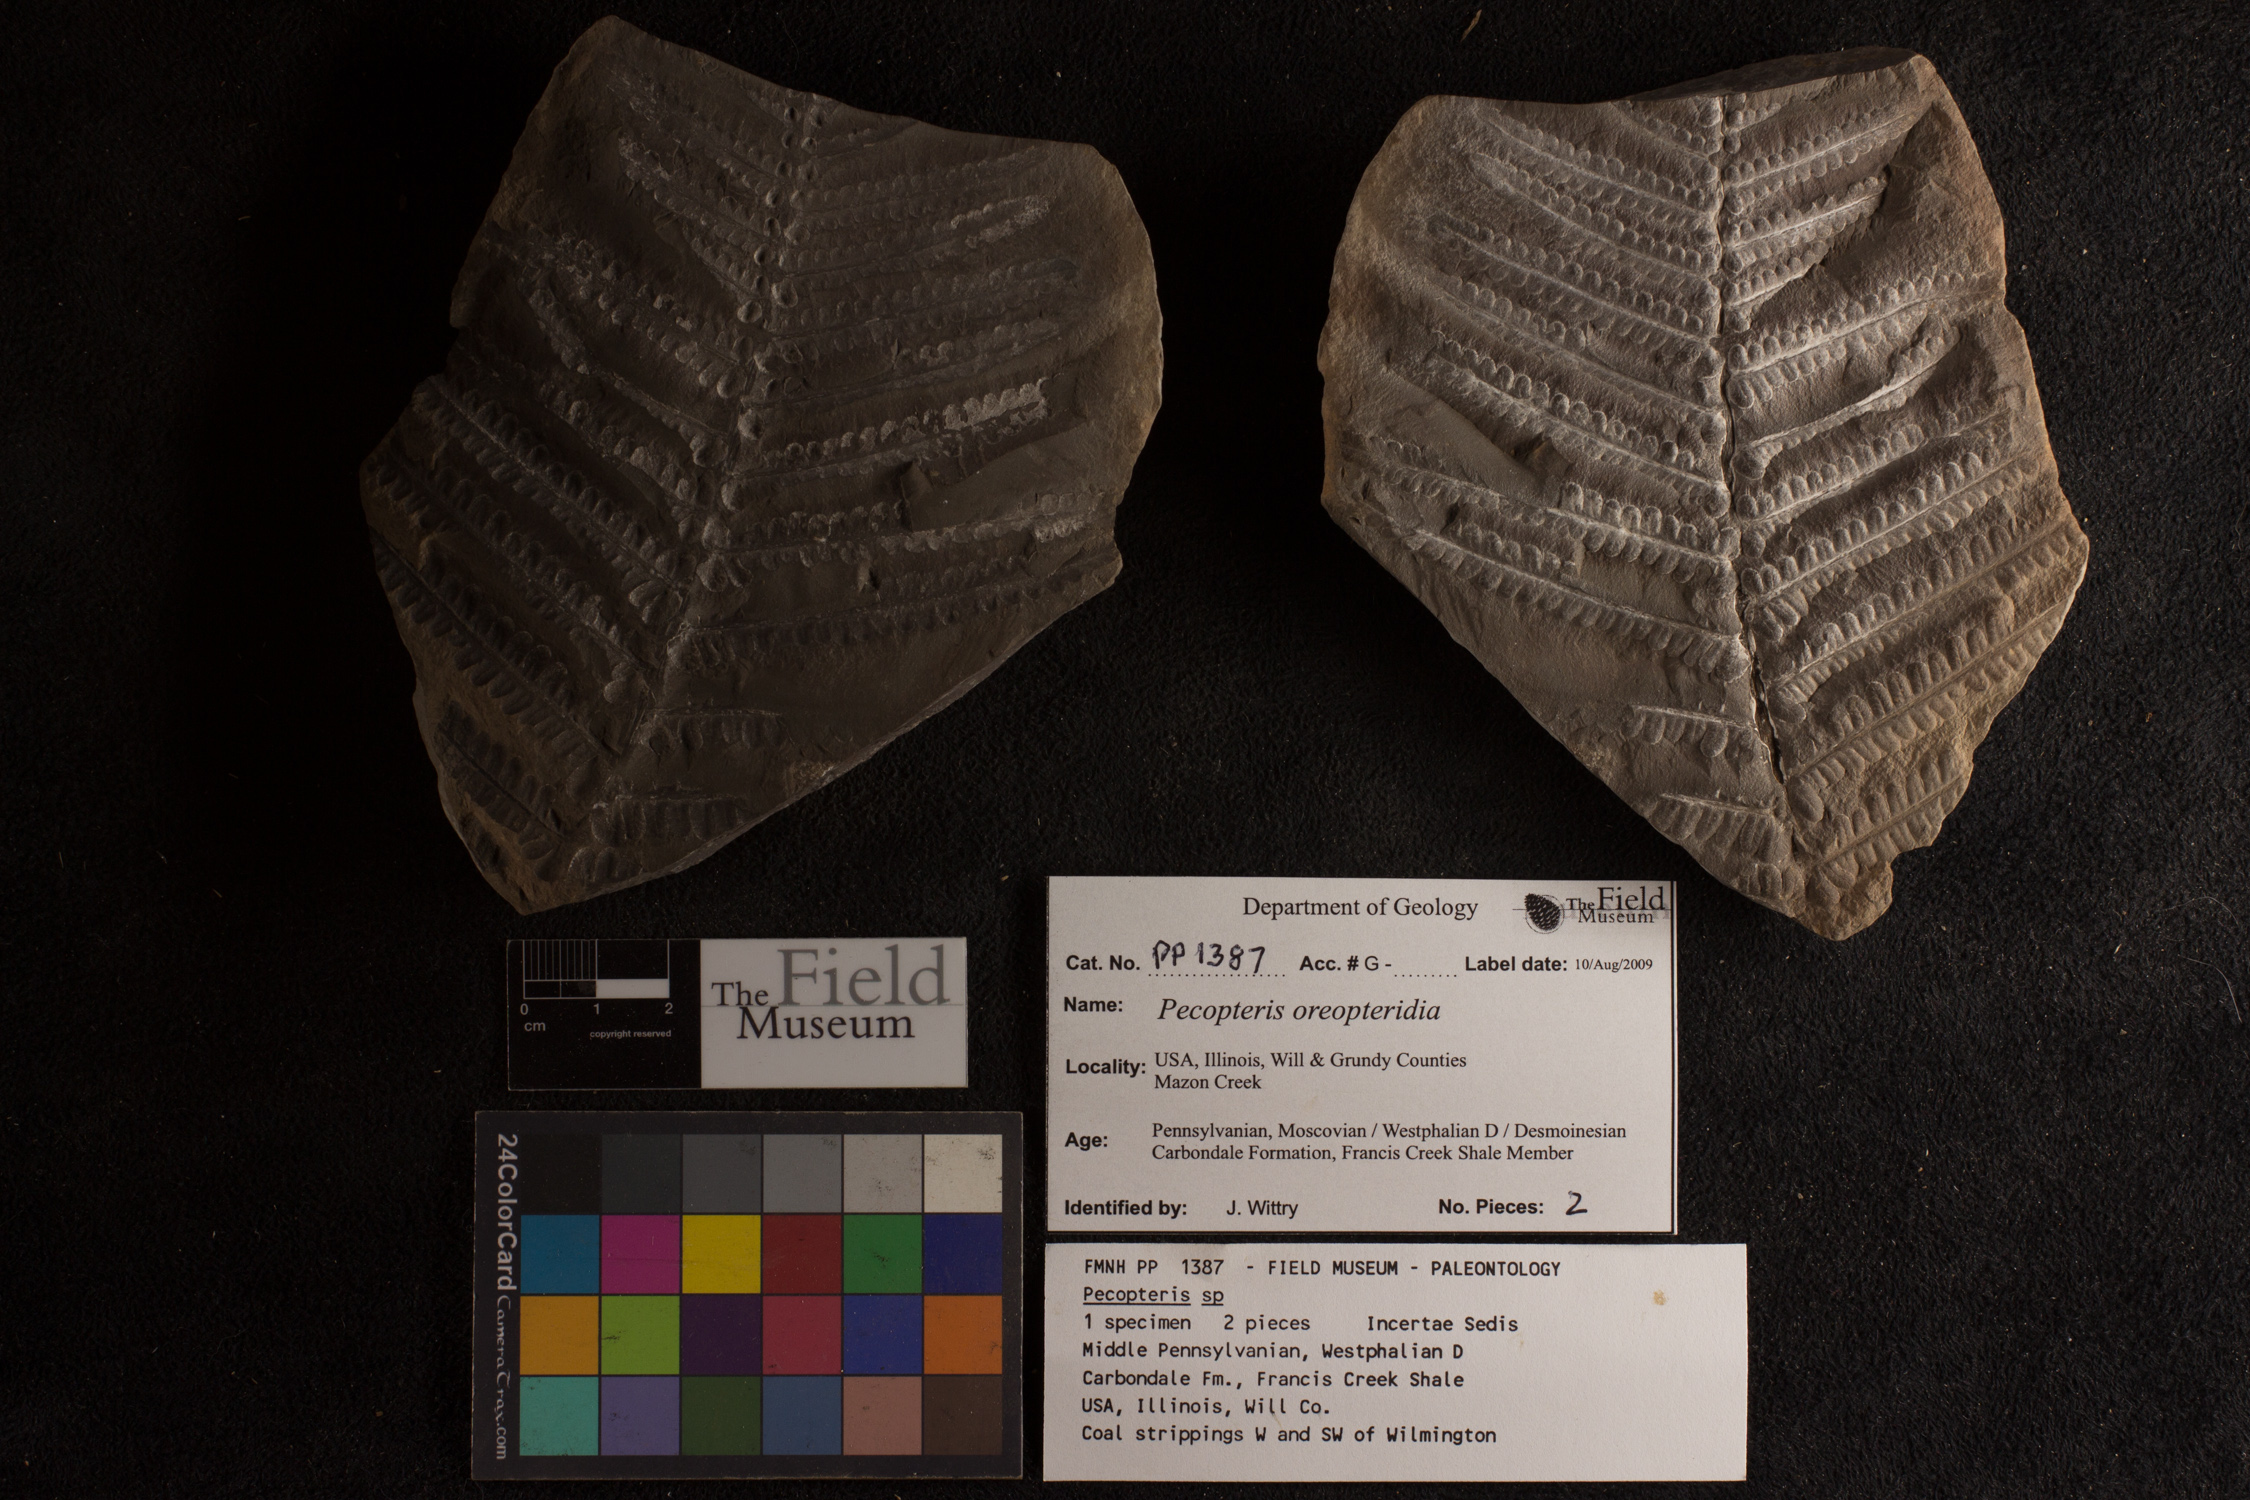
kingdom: Plantae
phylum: Tracheophyta
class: Polypodiopsida
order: Marattiales
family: Asterothecaceae
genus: Pecopteris
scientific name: Pecopteris
